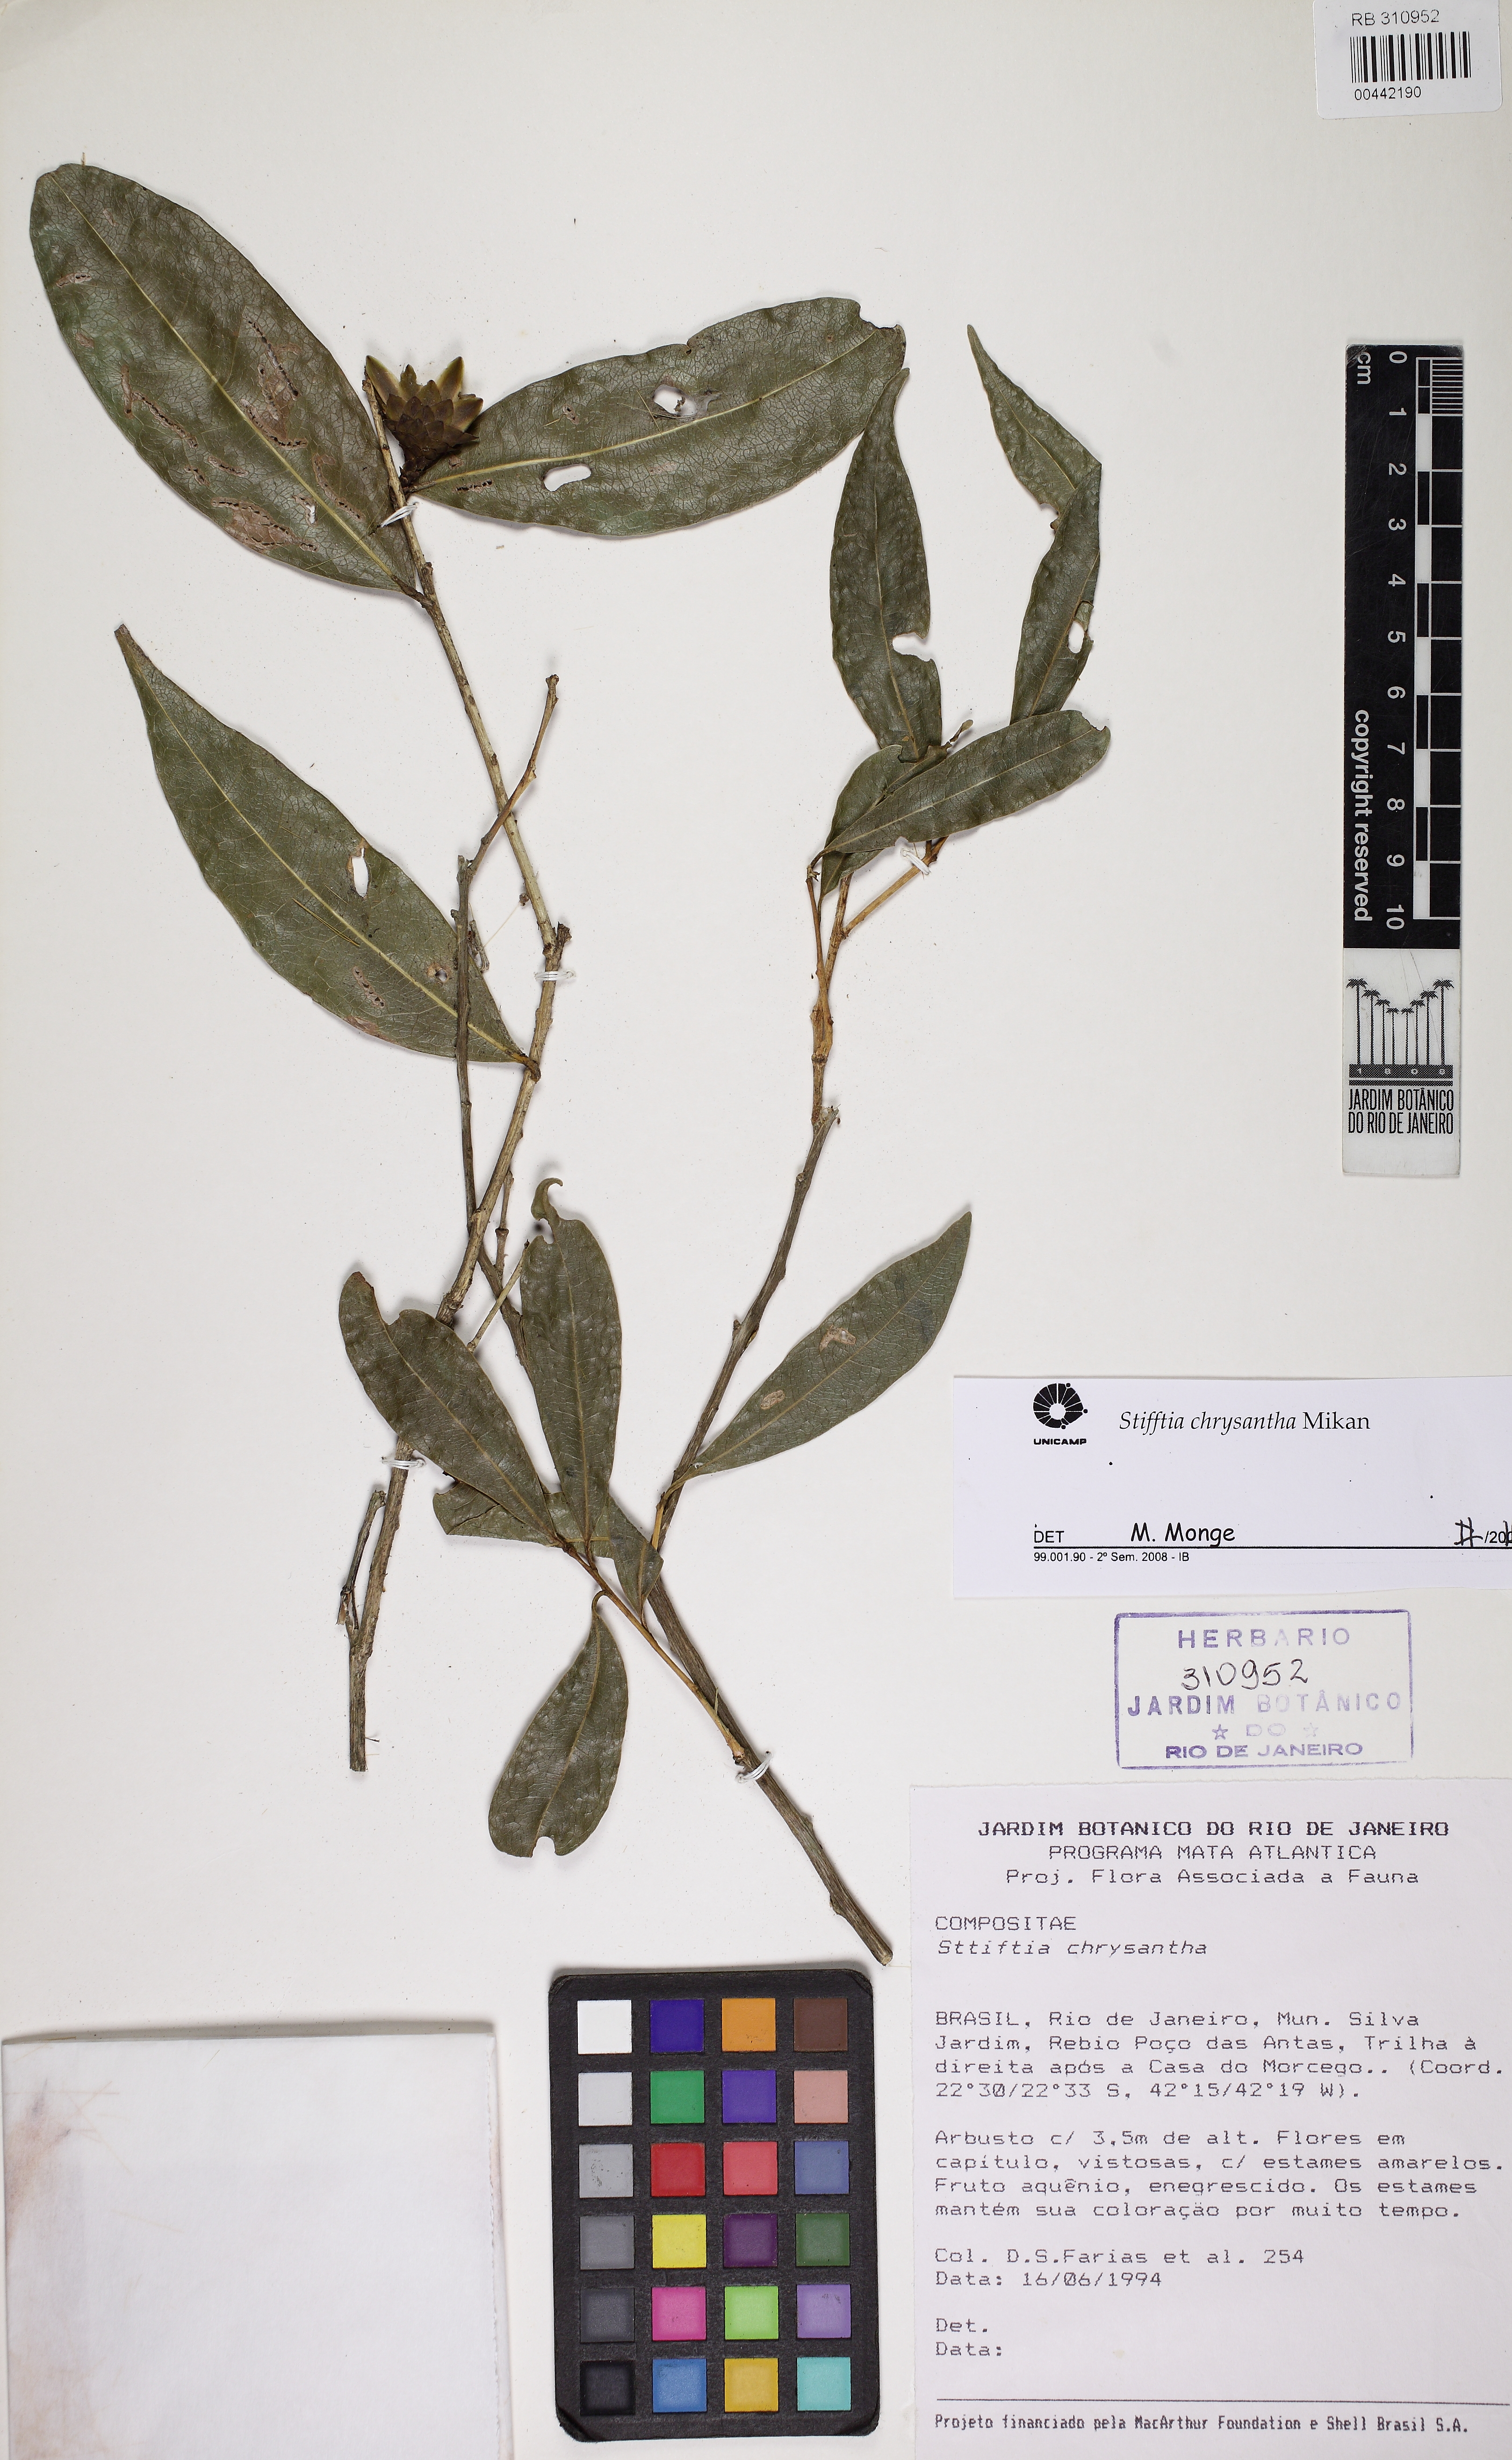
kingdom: Plantae
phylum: Tracheophyta
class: Magnoliopsida
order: Asterales
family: Asteraceae
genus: Stifftia
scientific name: Stifftia chrysantha
